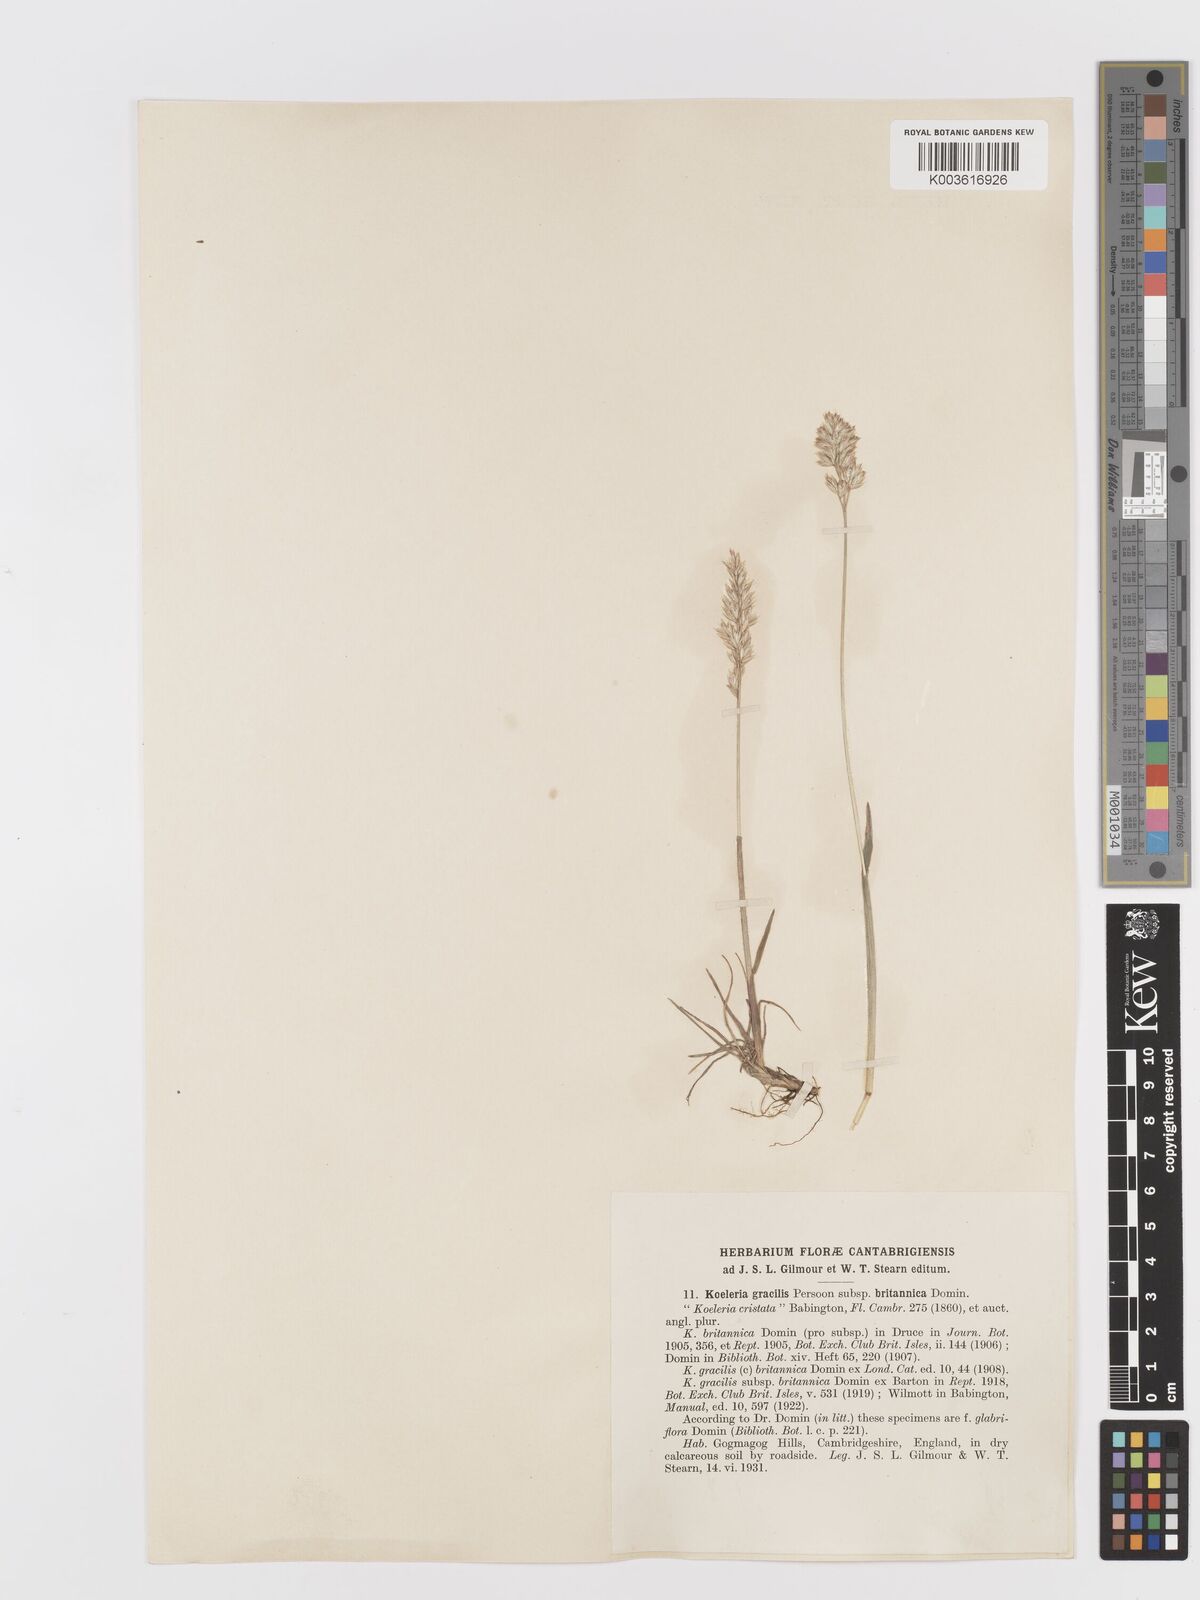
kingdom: Plantae
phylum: Tracheophyta
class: Liliopsida
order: Poales
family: Poaceae
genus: Koeleria
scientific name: Koeleria macrantha
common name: Crested hair-grass
